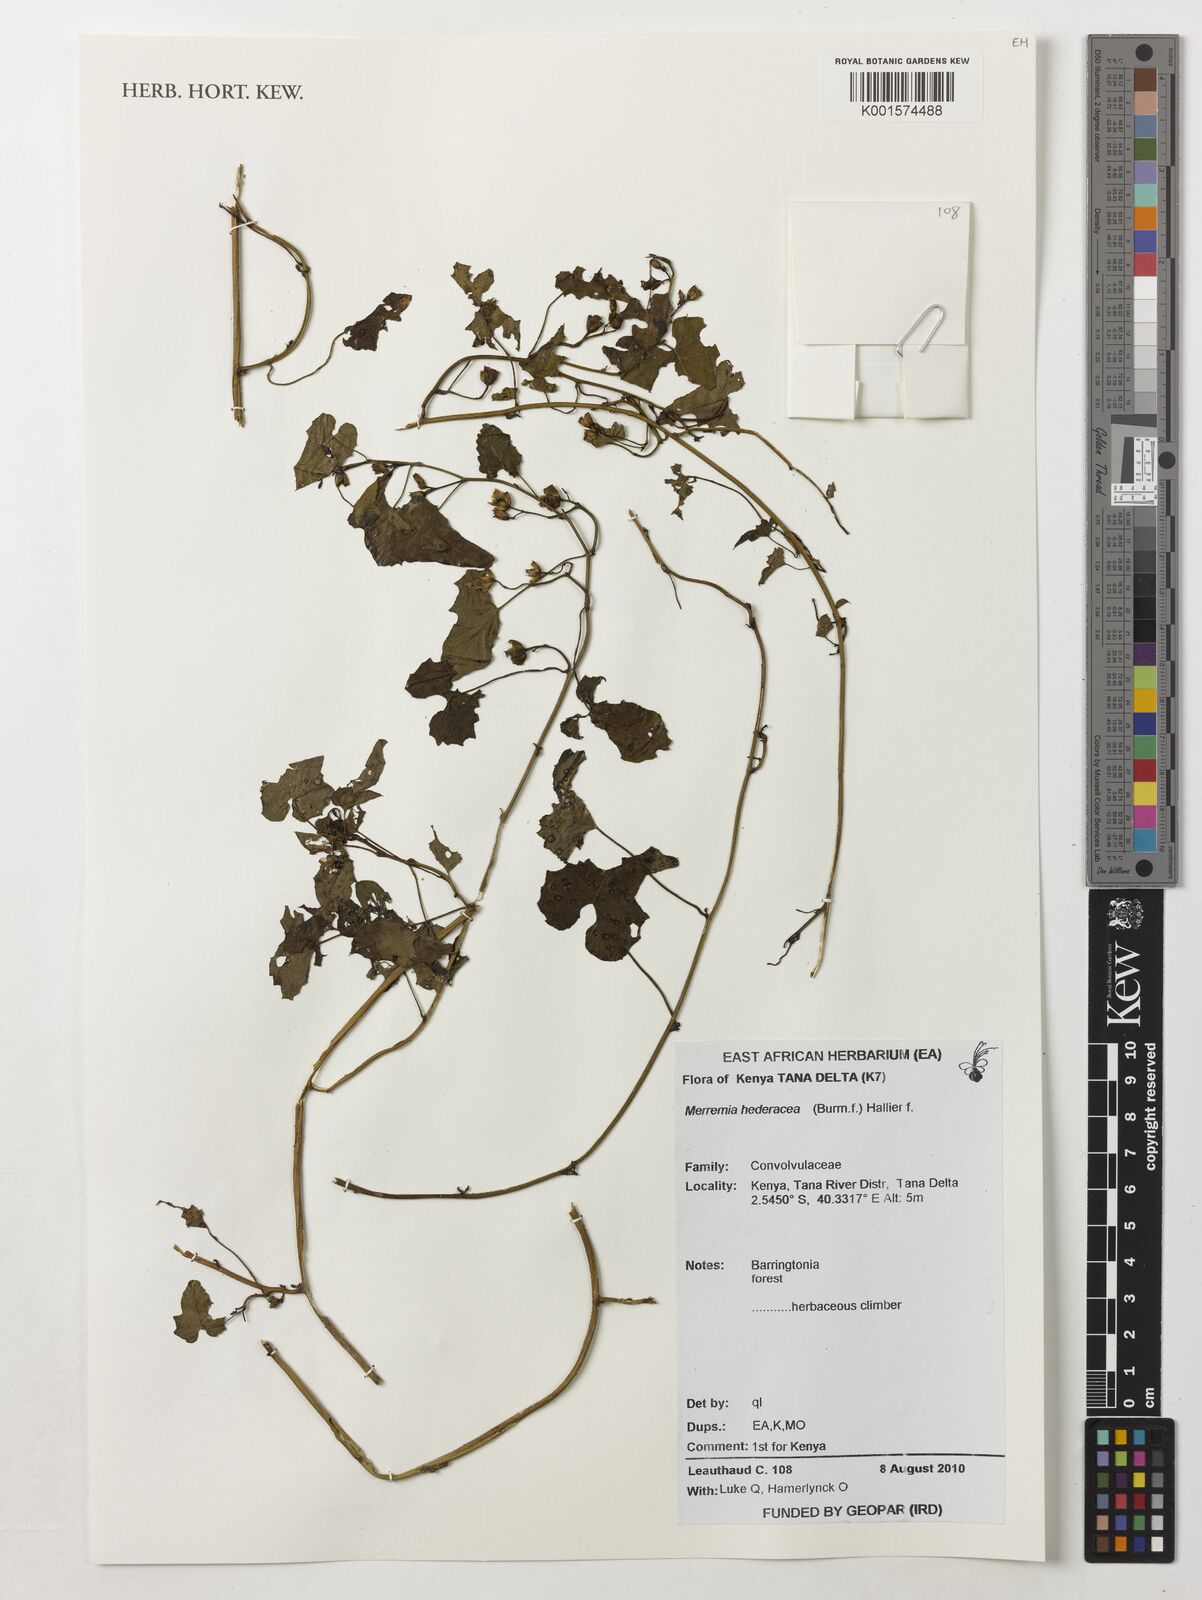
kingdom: Plantae
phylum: Tracheophyta
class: Magnoliopsida
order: Solanales
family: Convolvulaceae
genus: Merremia
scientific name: Merremia hederacea
